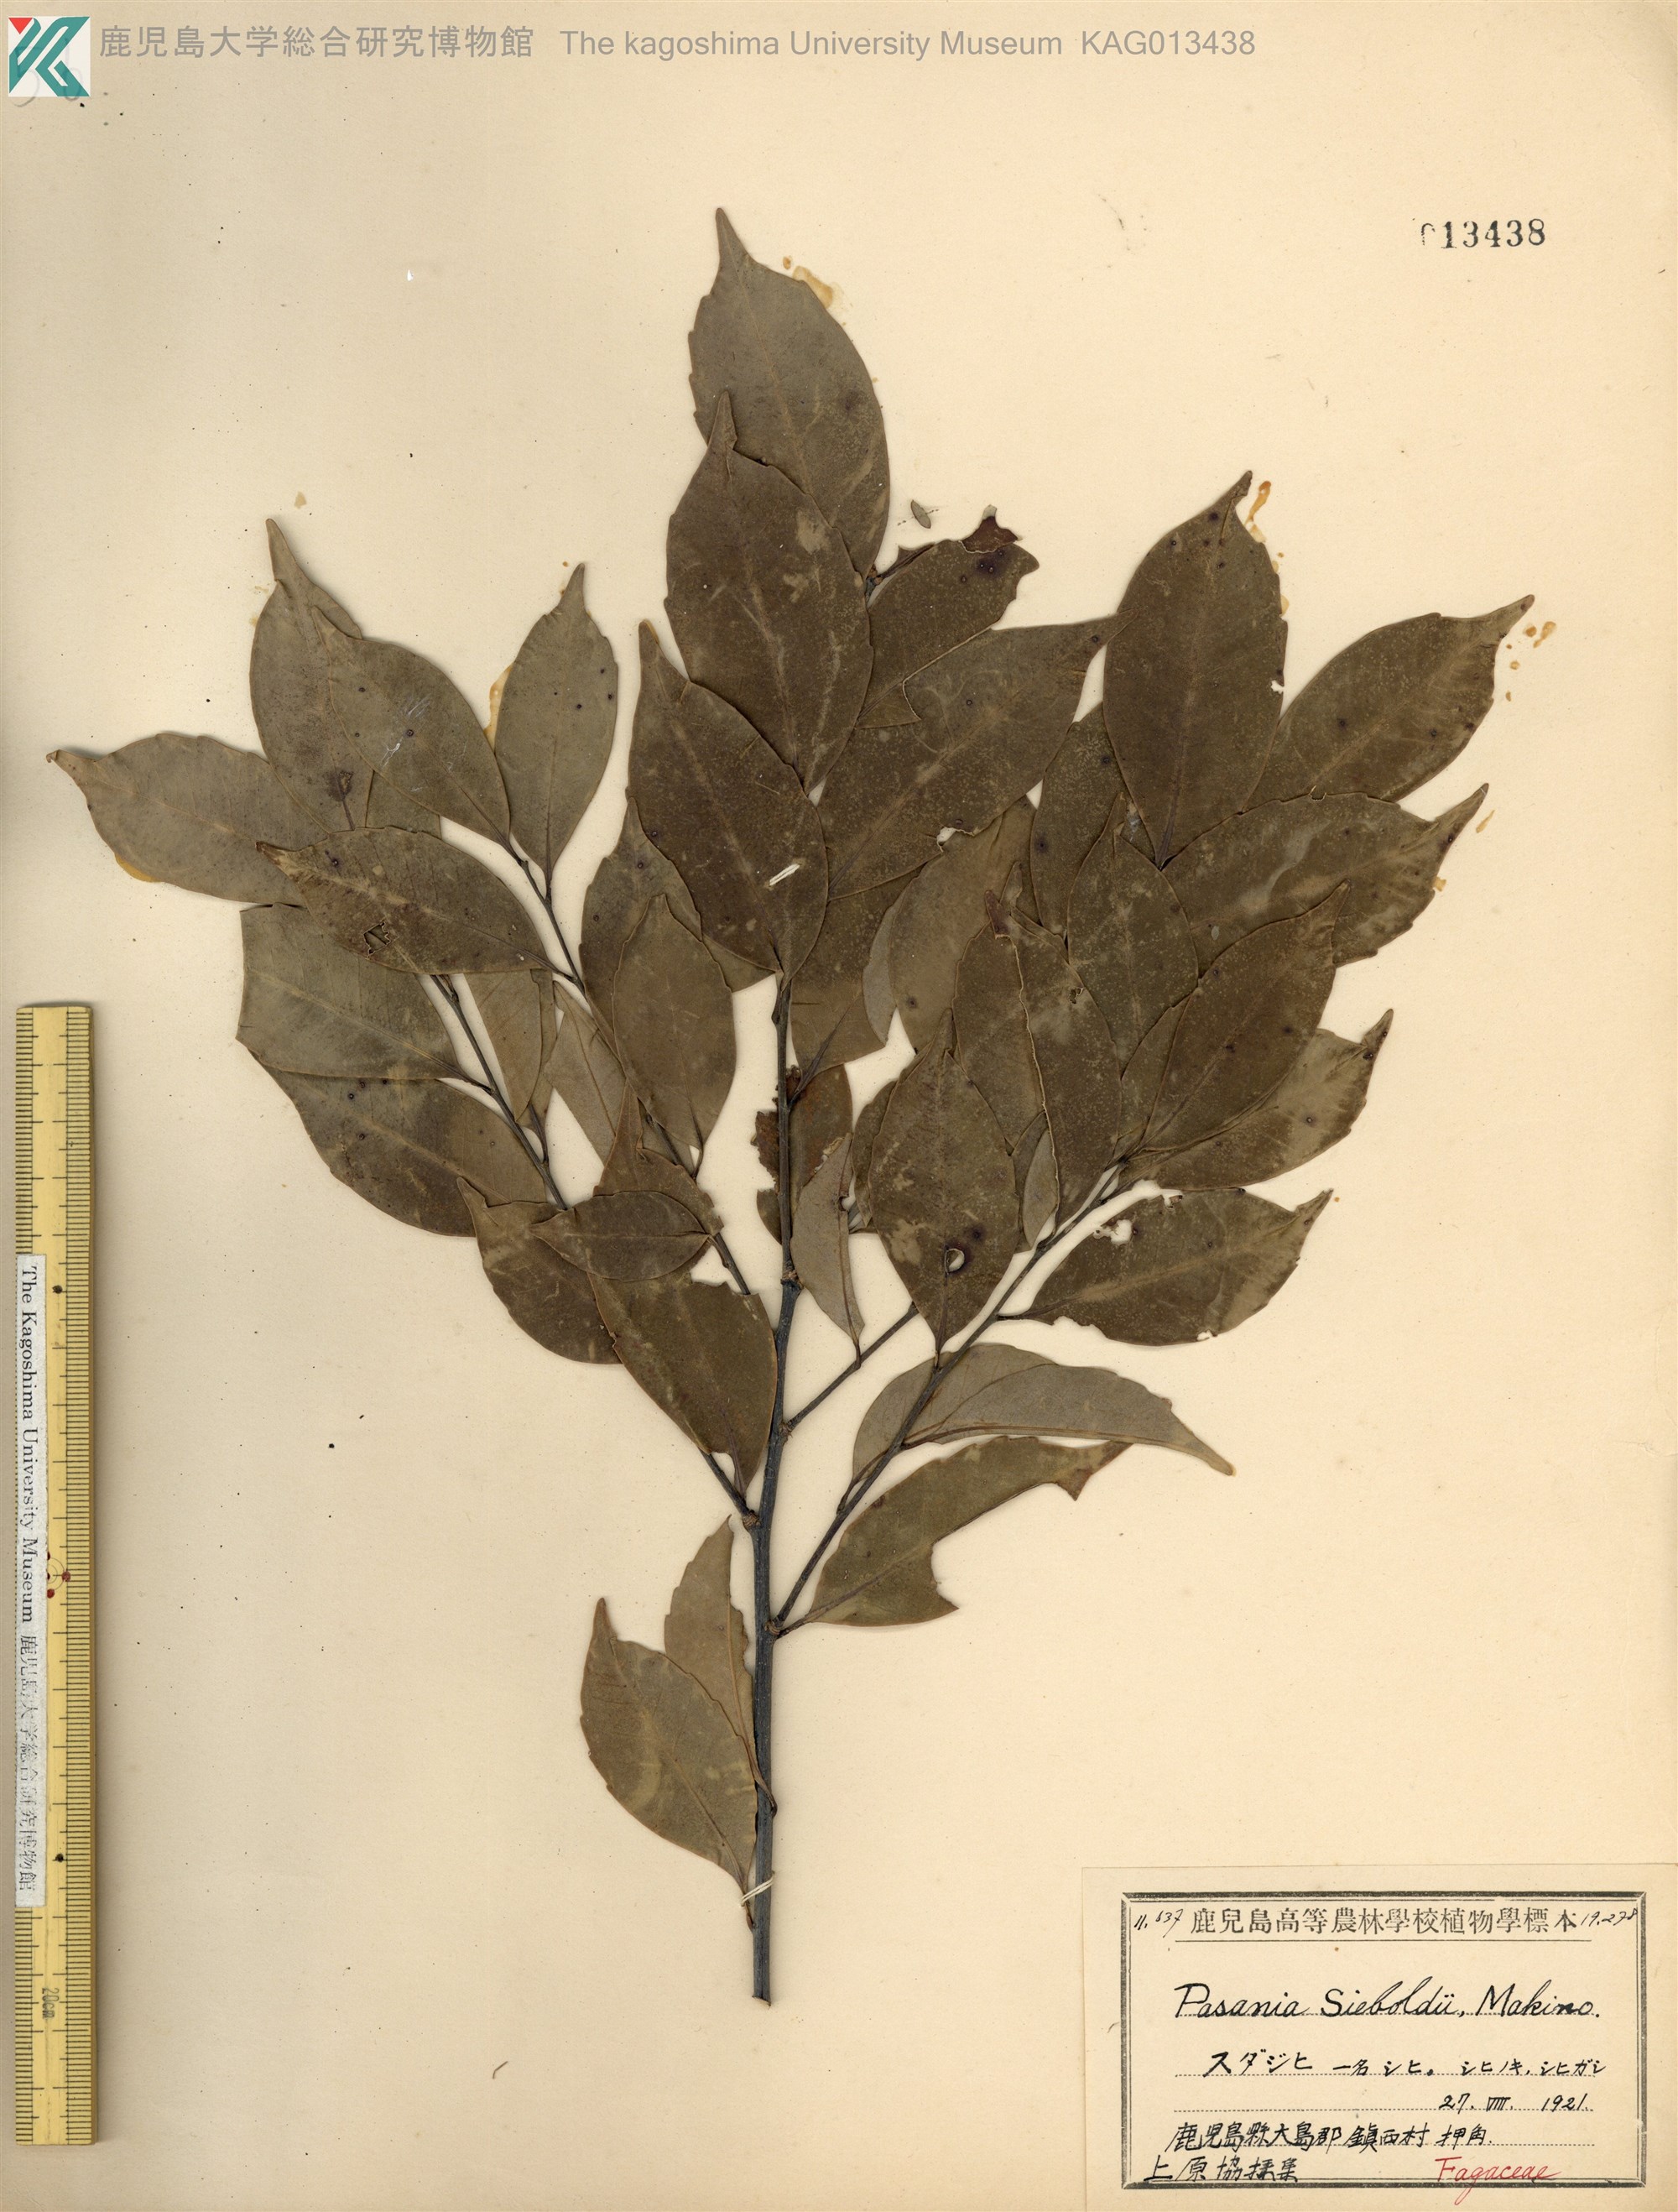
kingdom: Plantae
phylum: Tracheophyta
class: Magnoliopsida
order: Fagales
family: Fagaceae
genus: Castanopsis
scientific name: Castanopsis sieboldii
